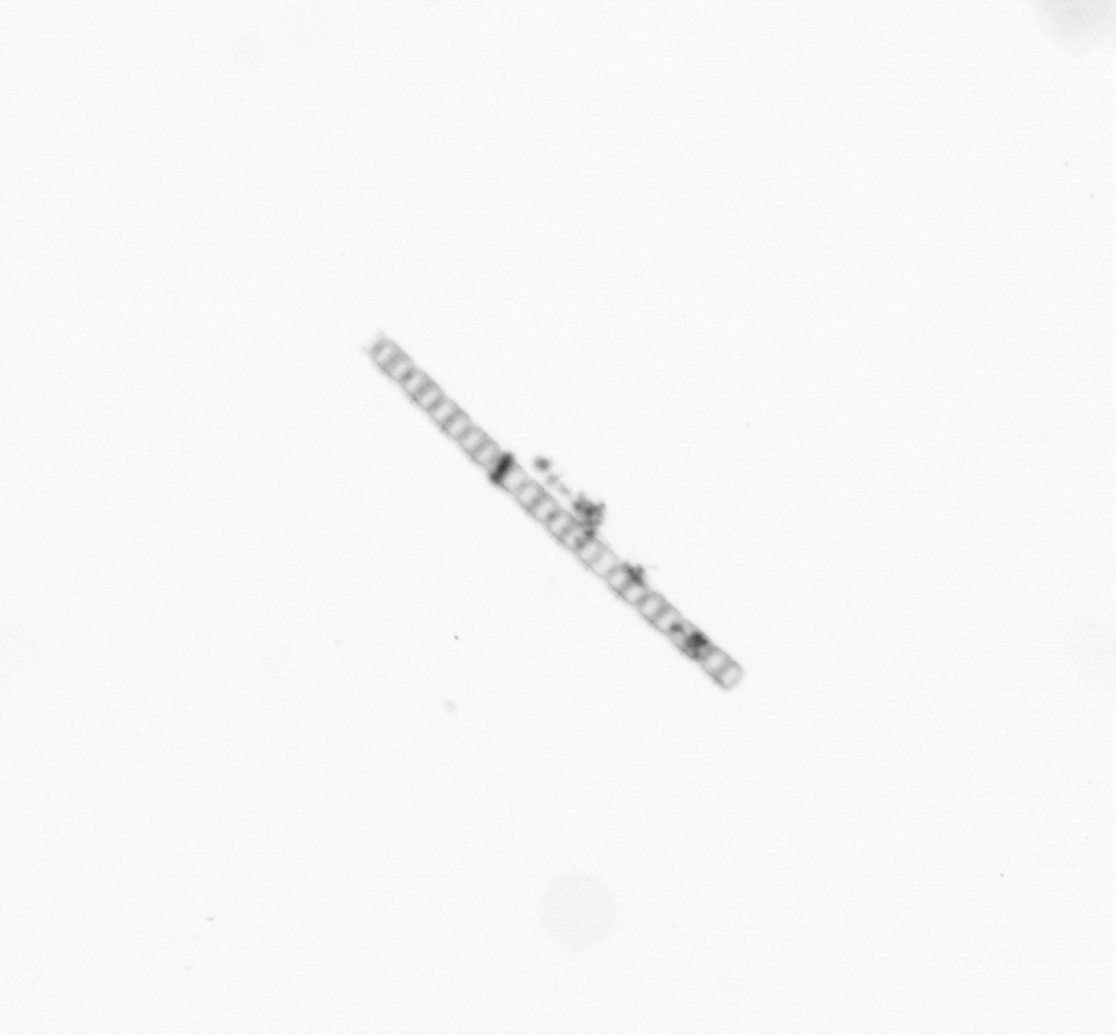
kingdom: Chromista
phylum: Ochrophyta
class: Bacillariophyceae
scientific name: Bacillariophyceae
